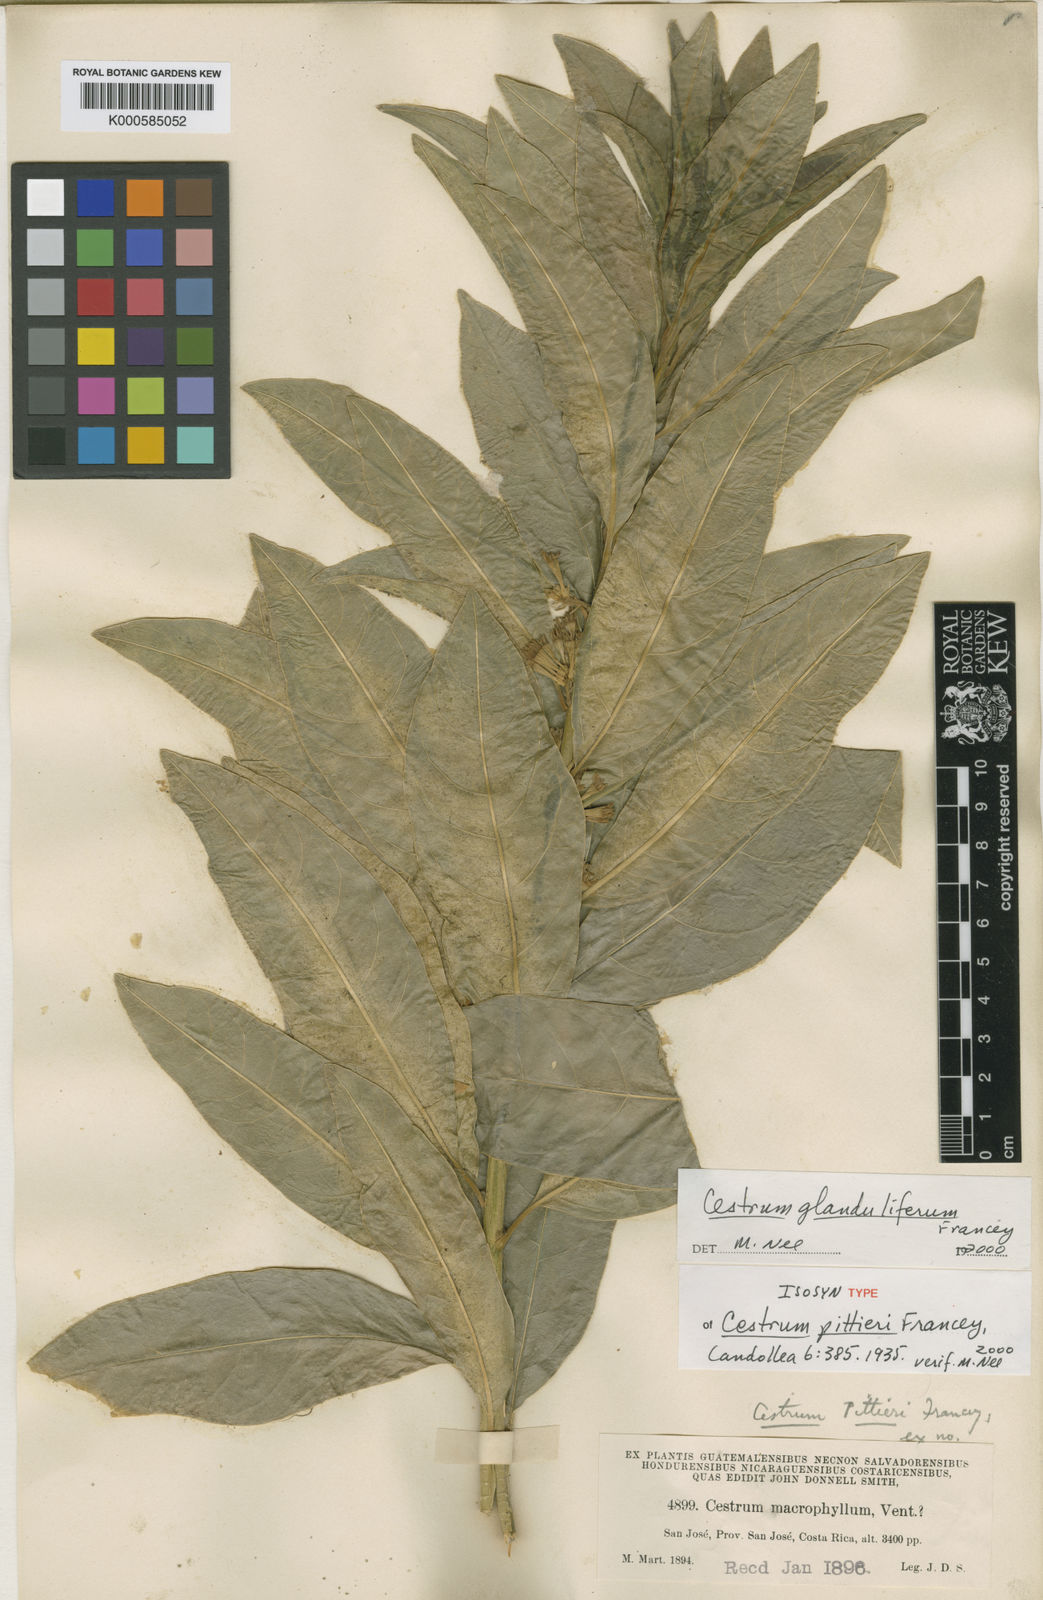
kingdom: Plantae
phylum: Tracheophyta
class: Magnoliopsida
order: Solanales
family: Solanaceae
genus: Cestrum
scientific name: Cestrum glanduliferum
